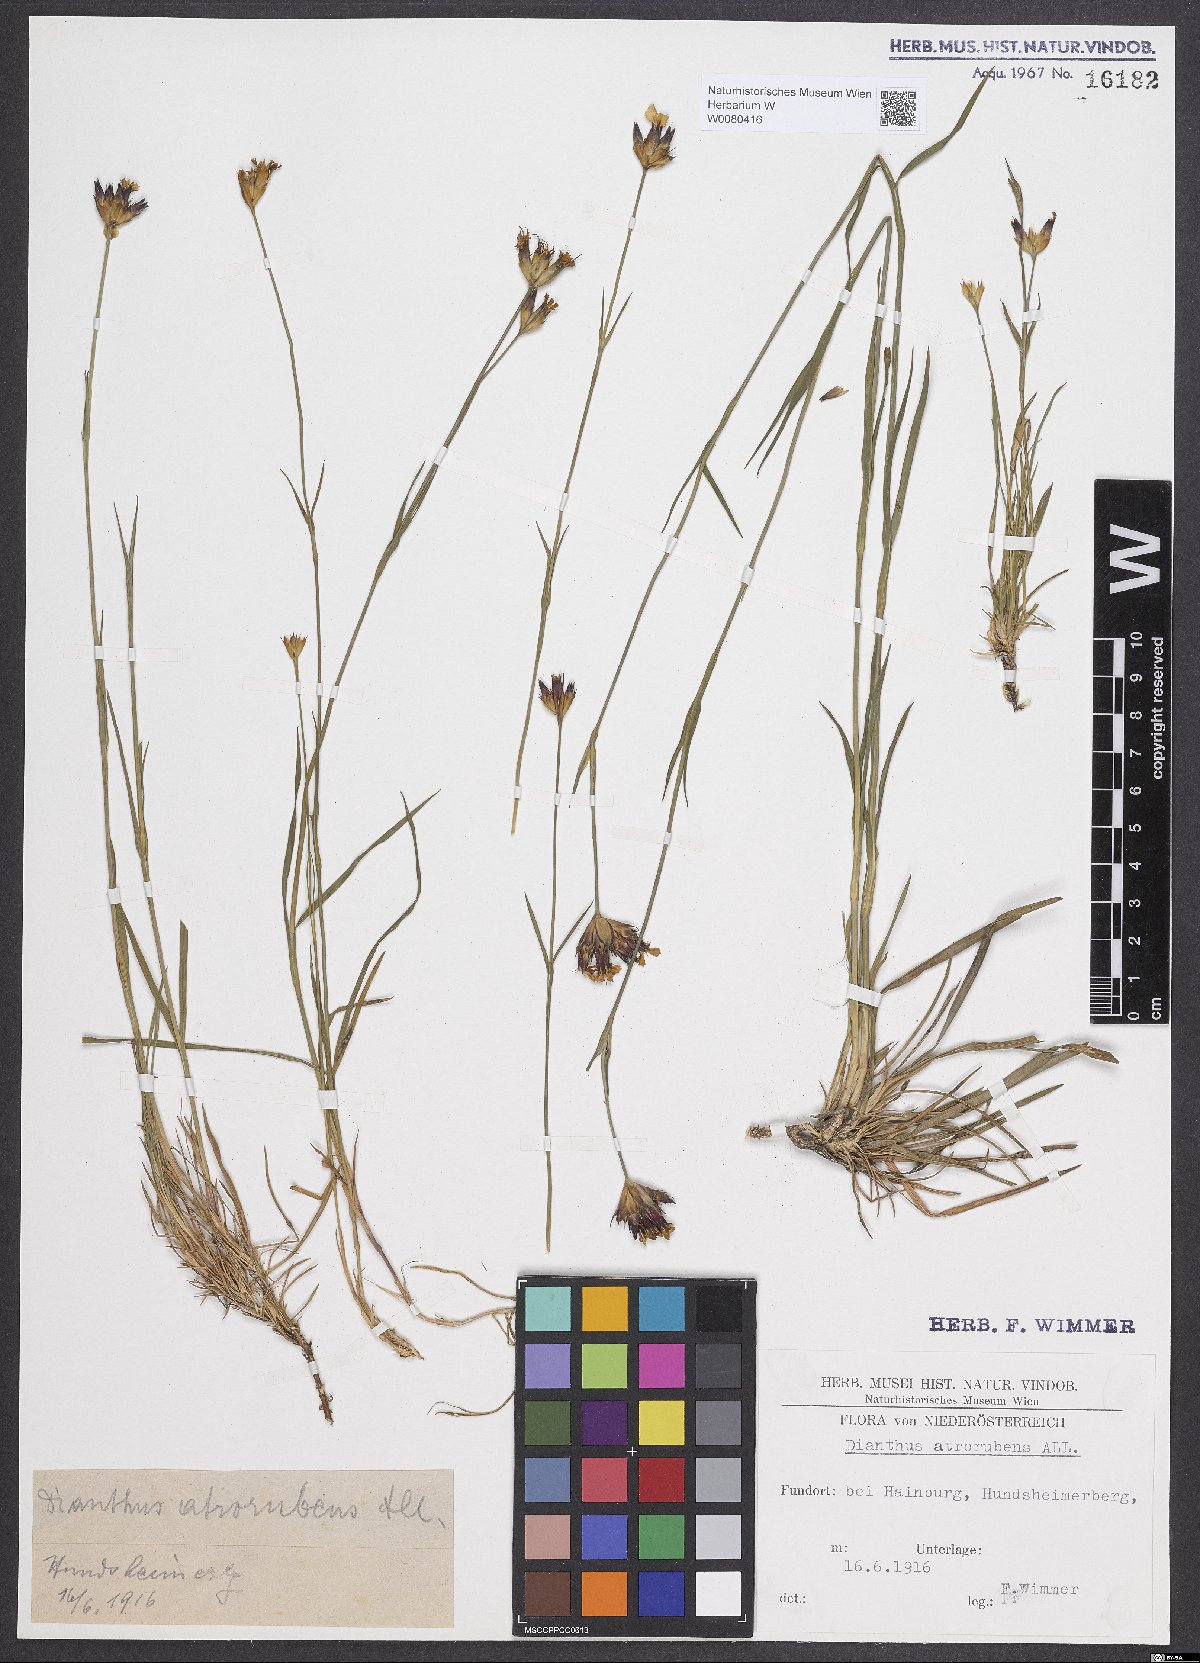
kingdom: Plantae
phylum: Tracheophyta
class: Magnoliopsida
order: Caryophyllales
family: Caryophyllaceae
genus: Dianthus
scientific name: Dianthus carthusianorum
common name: Carthusian pink
